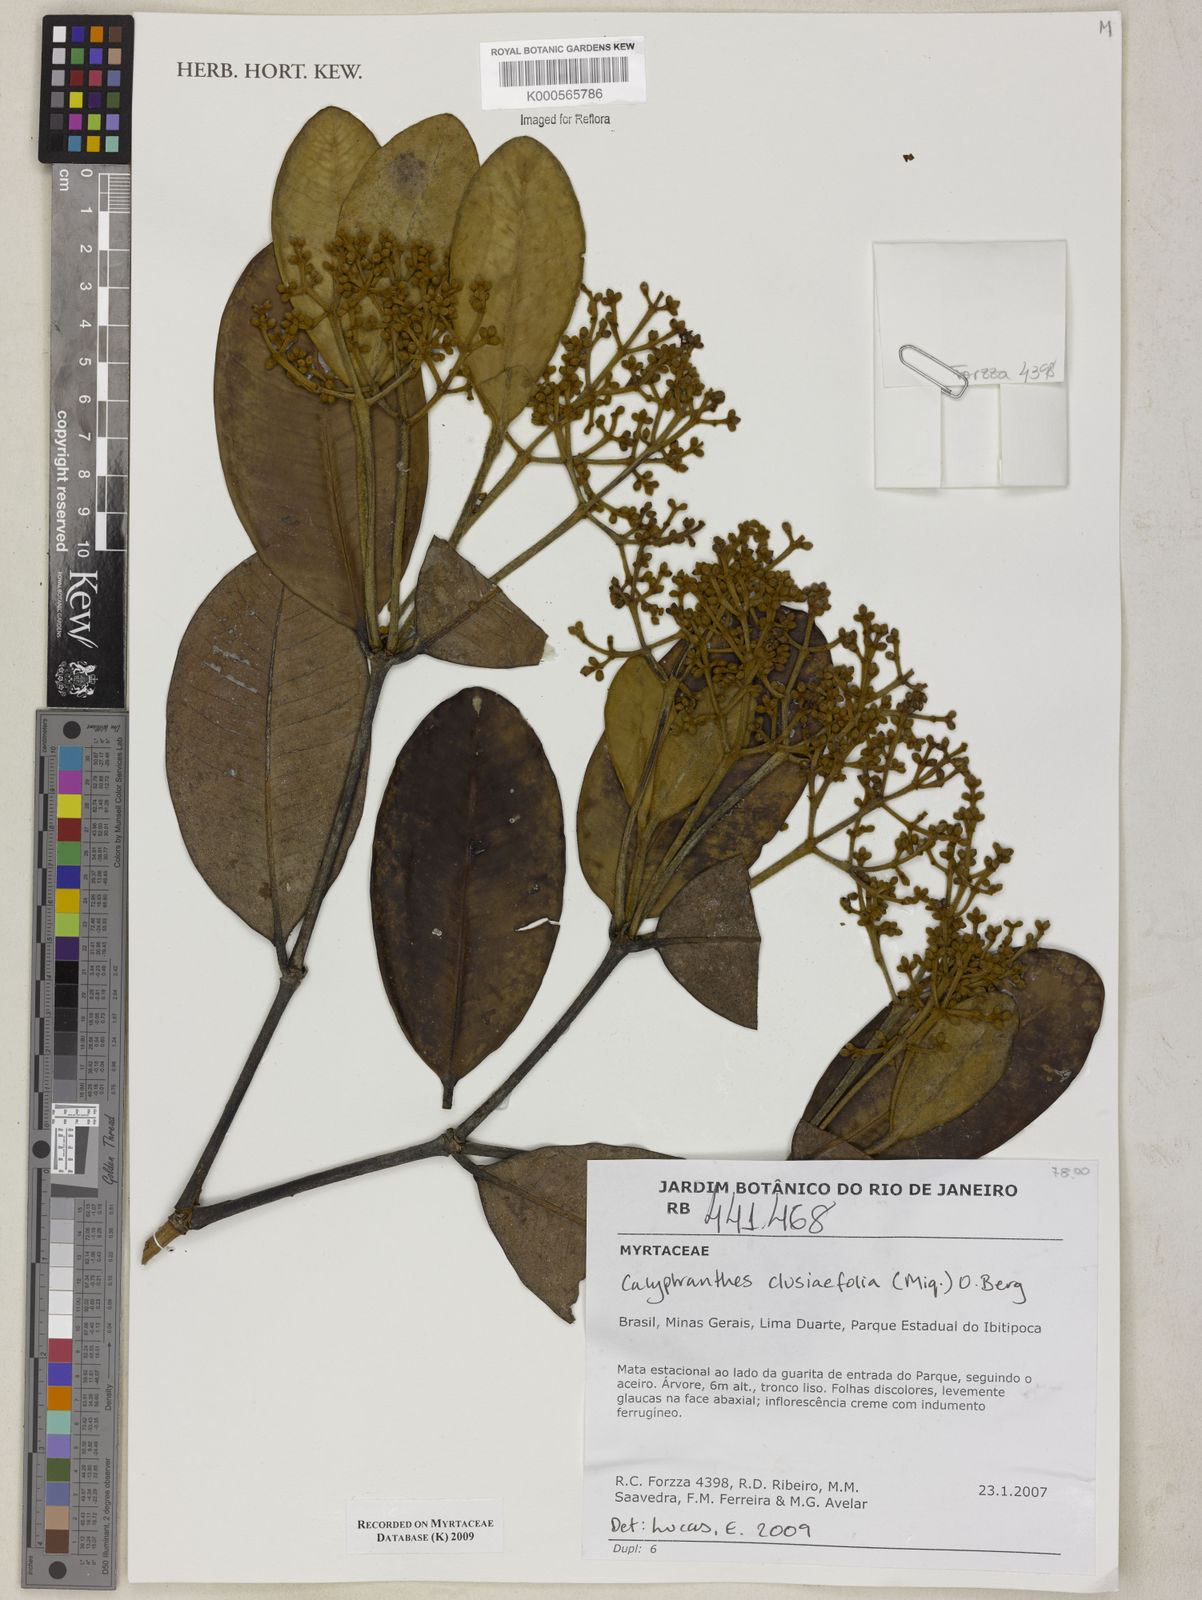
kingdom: Plantae
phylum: Tracheophyta
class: Magnoliopsida
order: Myrtales
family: Myrtaceae
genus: Myrcia
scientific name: Myrcia neoclusiifolia
